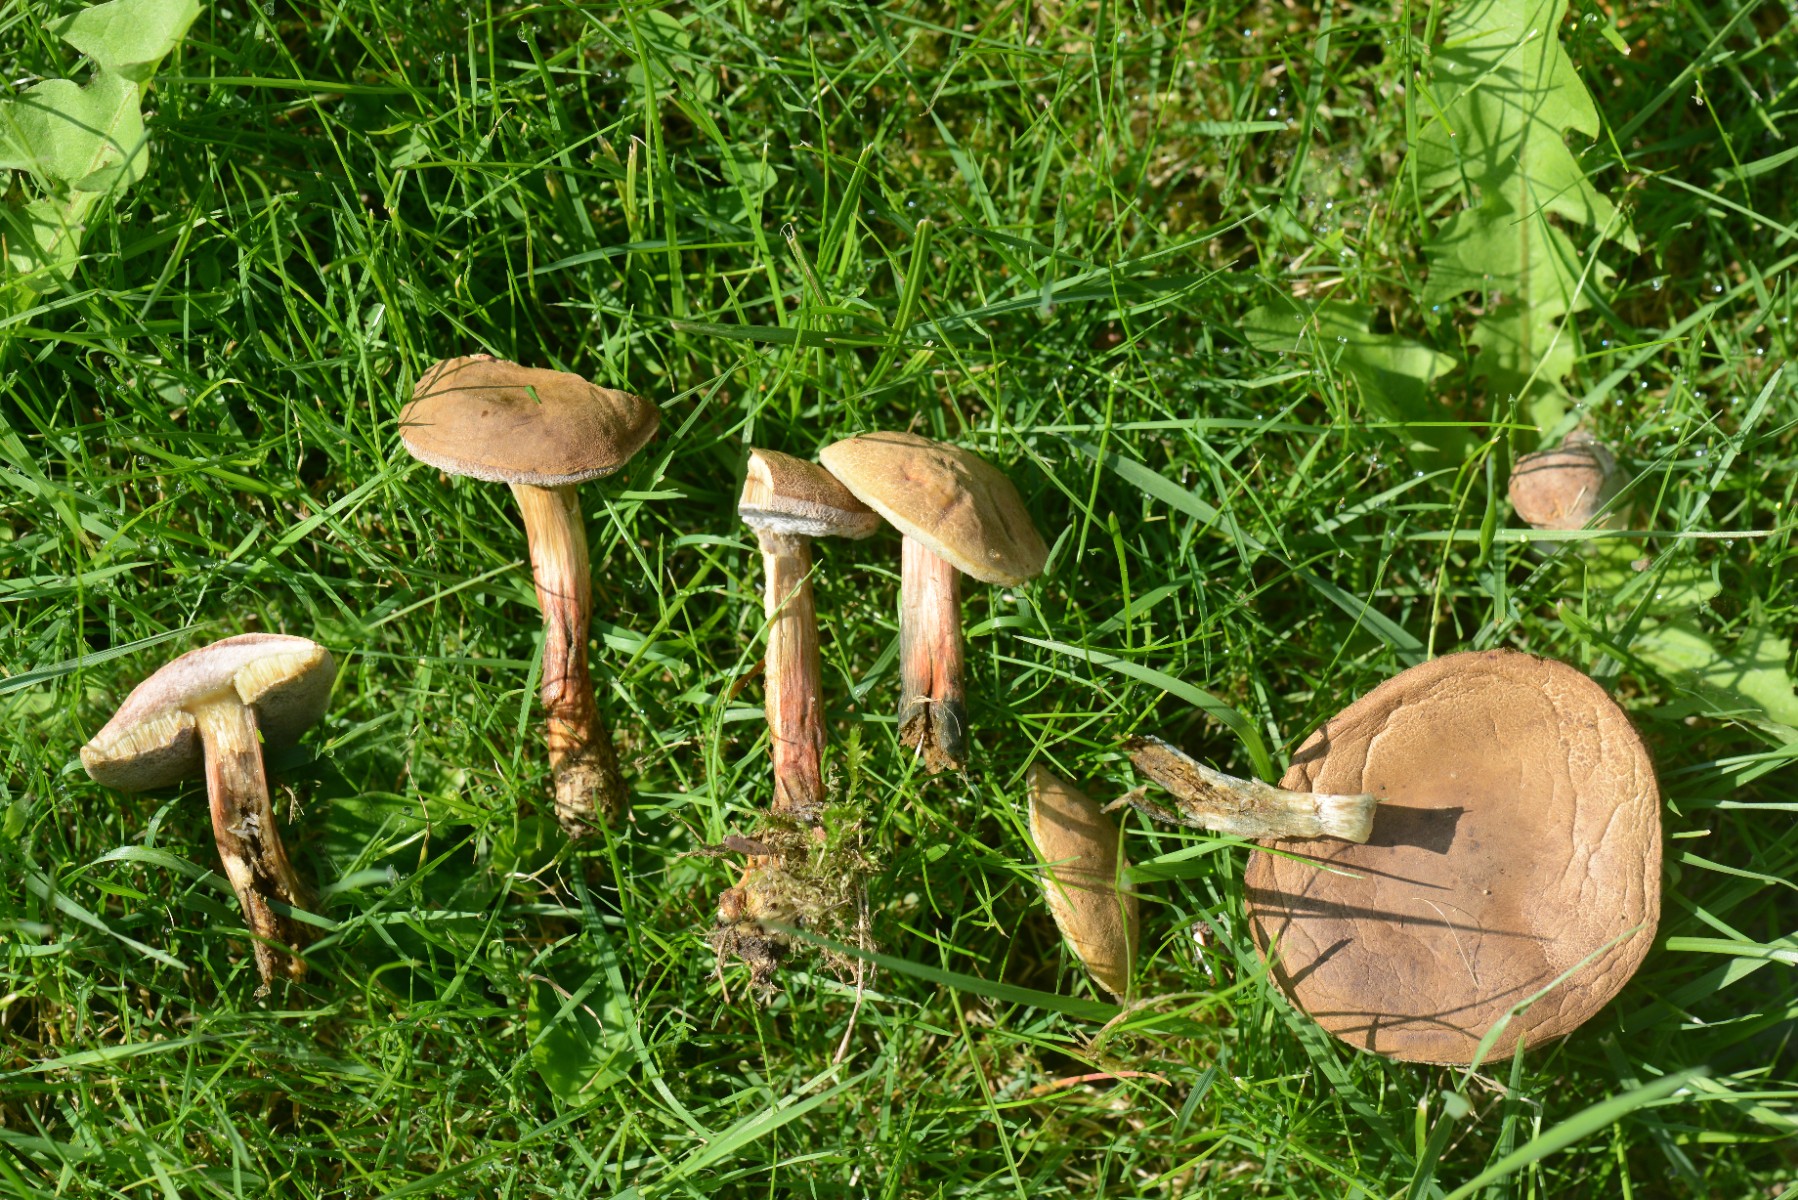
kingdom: Fungi
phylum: Basidiomycota
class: Agaricomycetes
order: Boletales
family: Boletaceae
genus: Hortiboletus
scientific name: Hortiboletus bubalinus
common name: aurora-rørhat
